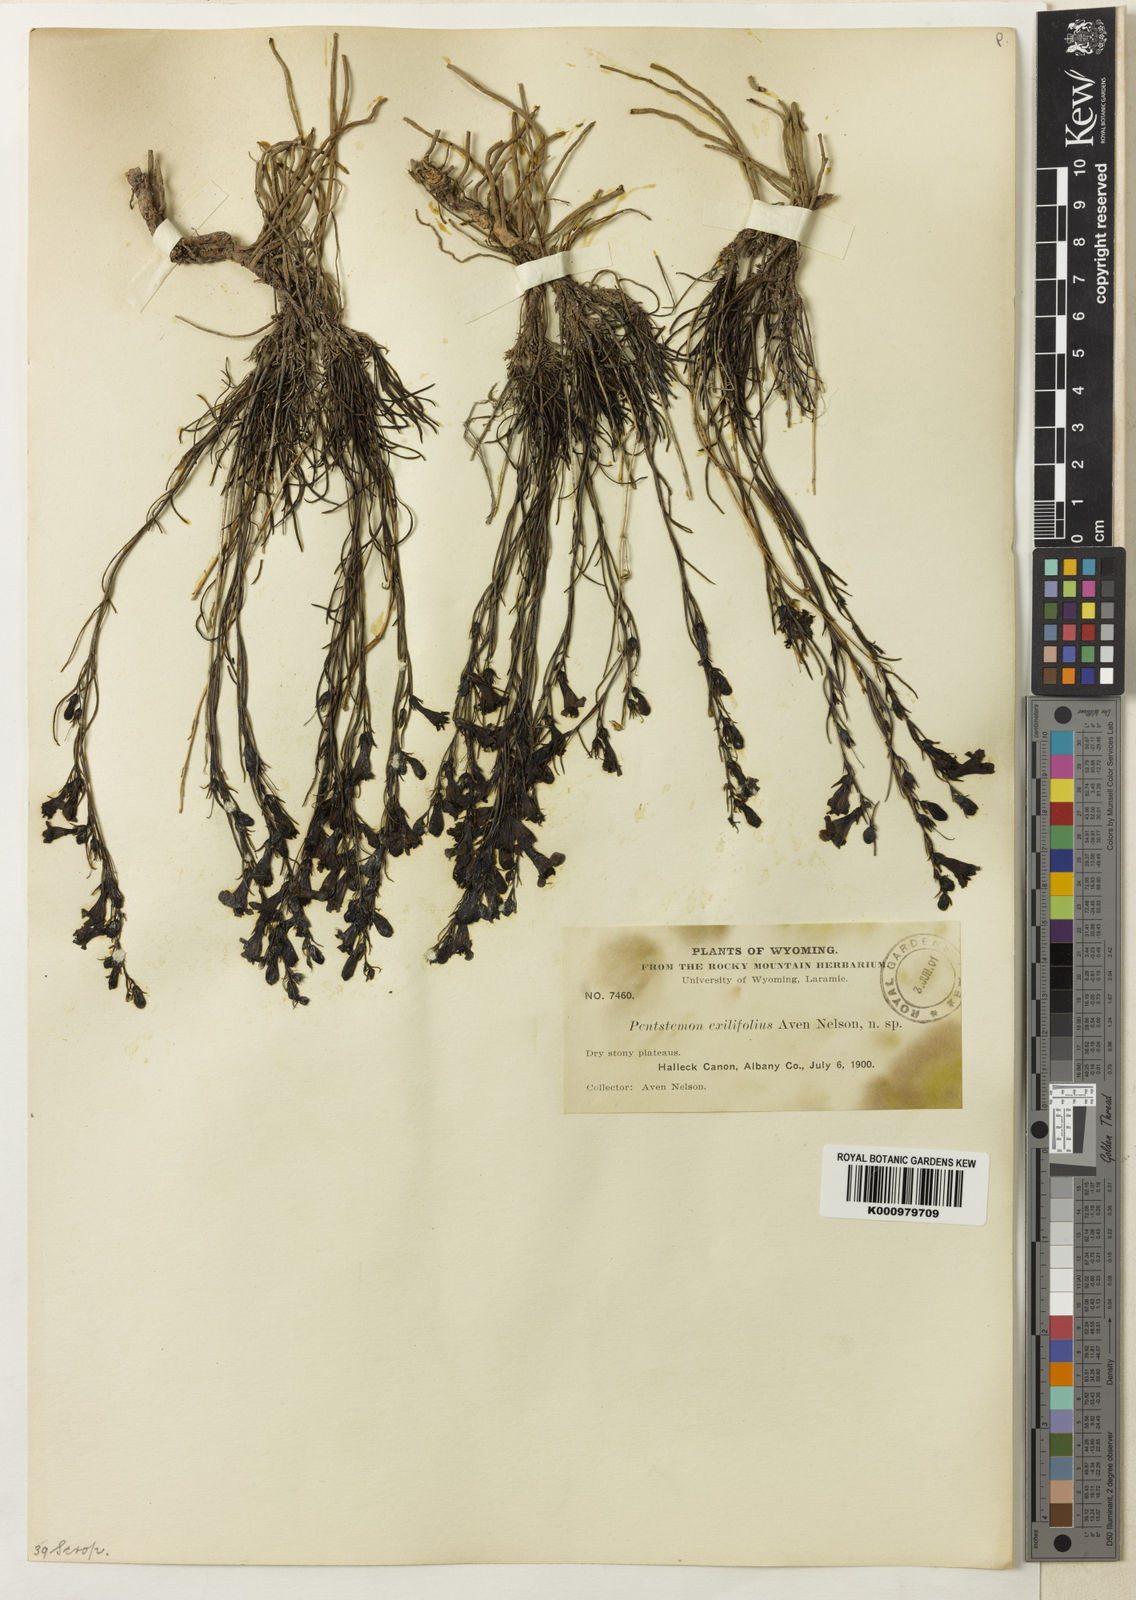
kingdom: Plantae
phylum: Tracheophyta
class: Magnoliopsida
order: Lamiales
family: Plantaginaceae
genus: Penstemon
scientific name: Penstemon laricifolius
